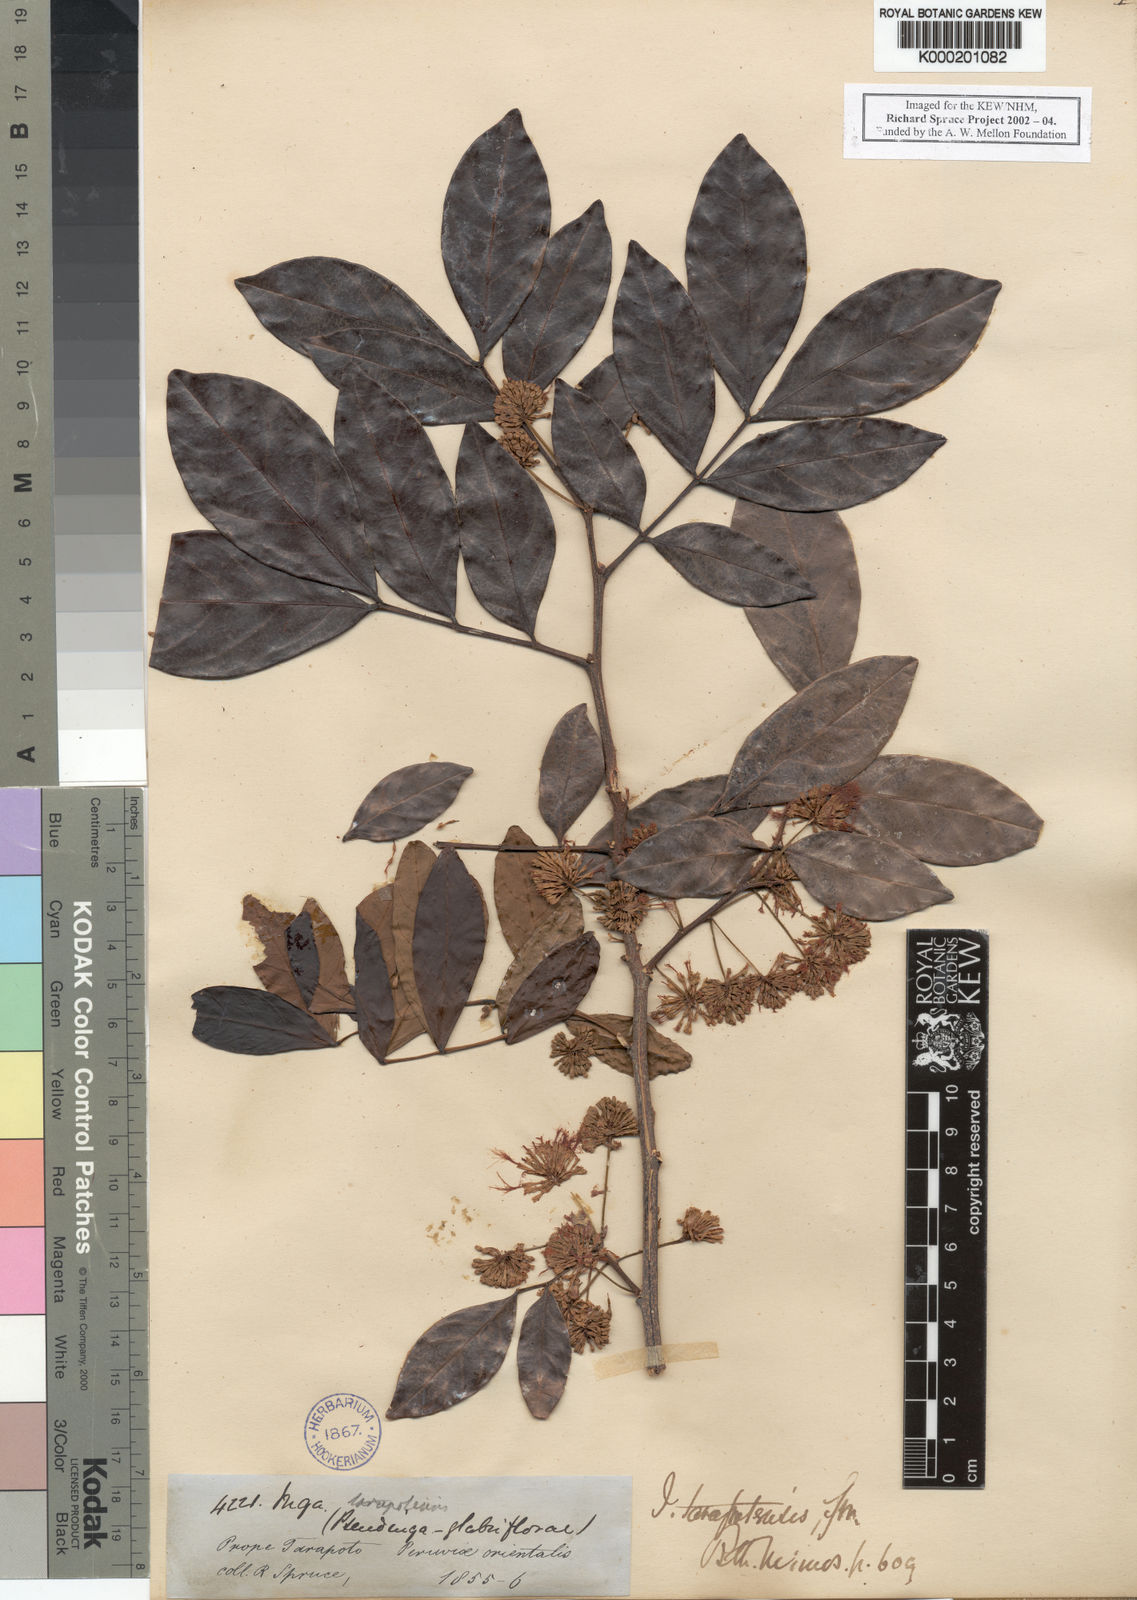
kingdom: Plantae
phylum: Tracheophyta
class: Magnoliopsida
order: Fabales
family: Fabaceae
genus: Inga
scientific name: Inga tarapotensis
